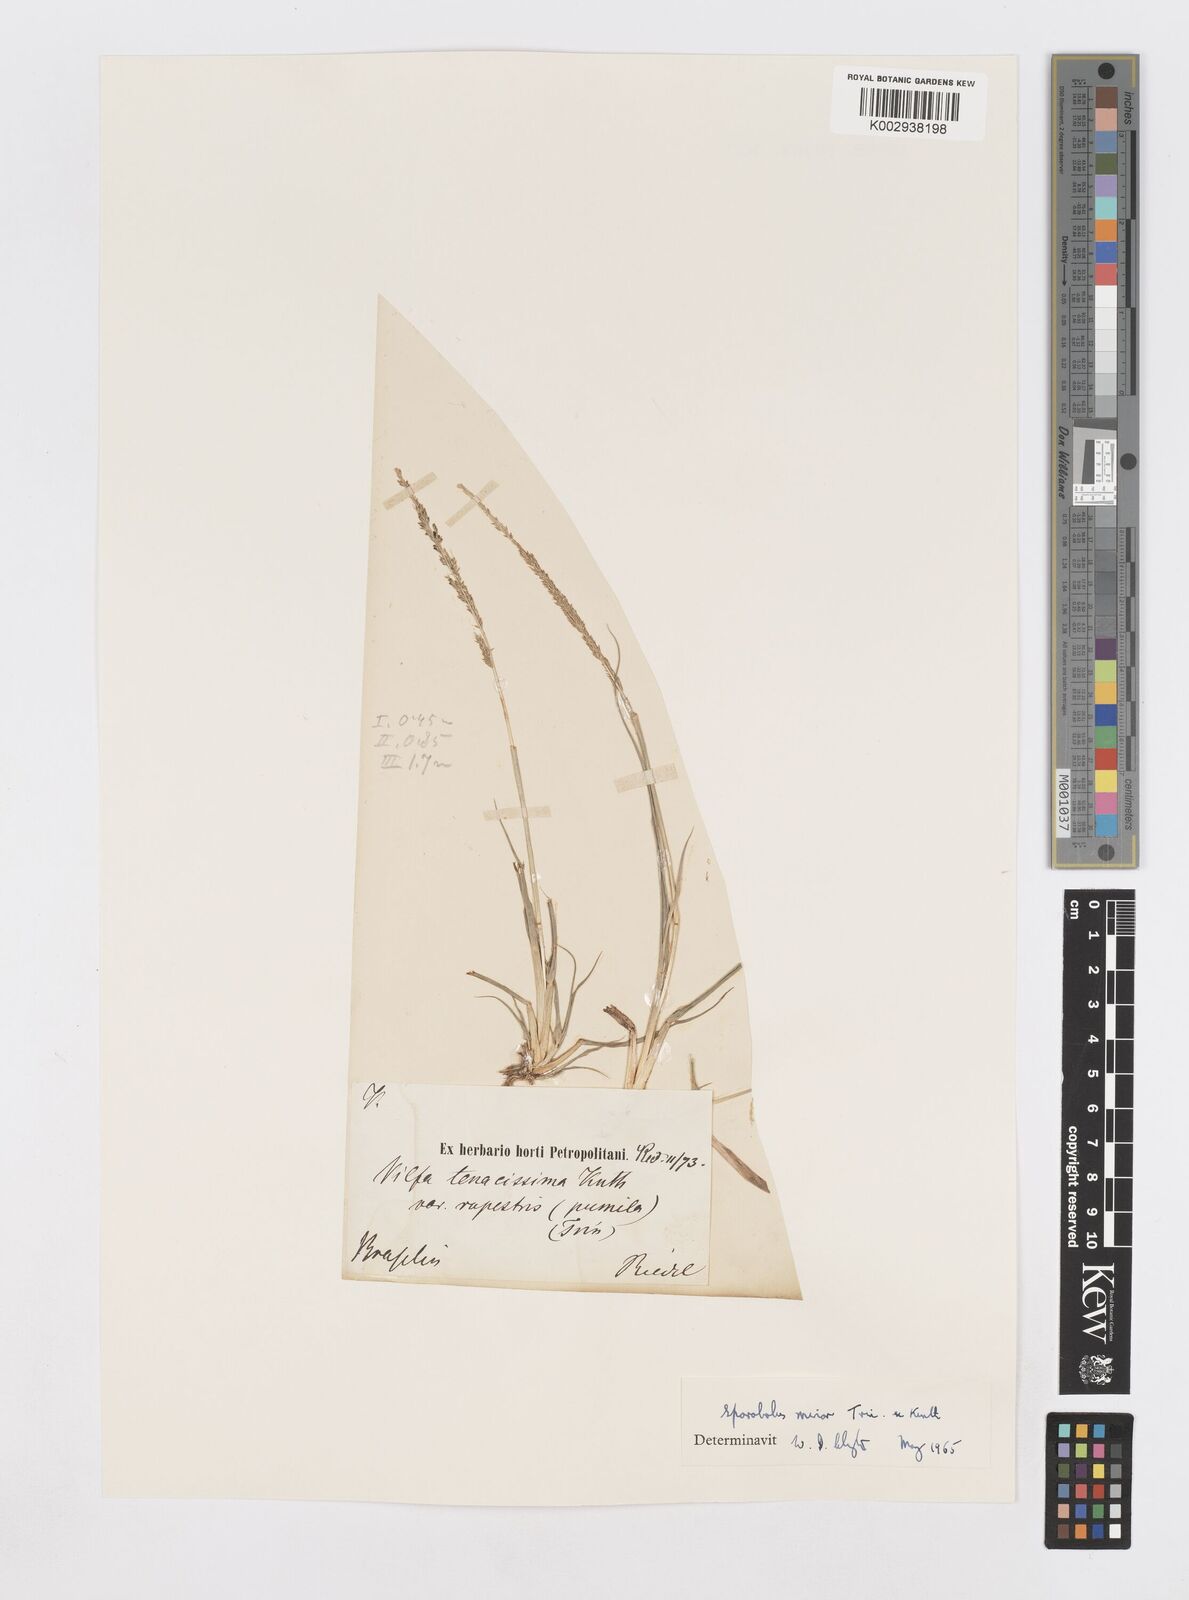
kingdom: Plantae
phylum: Tracheophyta
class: Liliopsida
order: Poales
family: Poaceae
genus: Sporobolus
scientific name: Sporobolus indicus
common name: Smut grass
